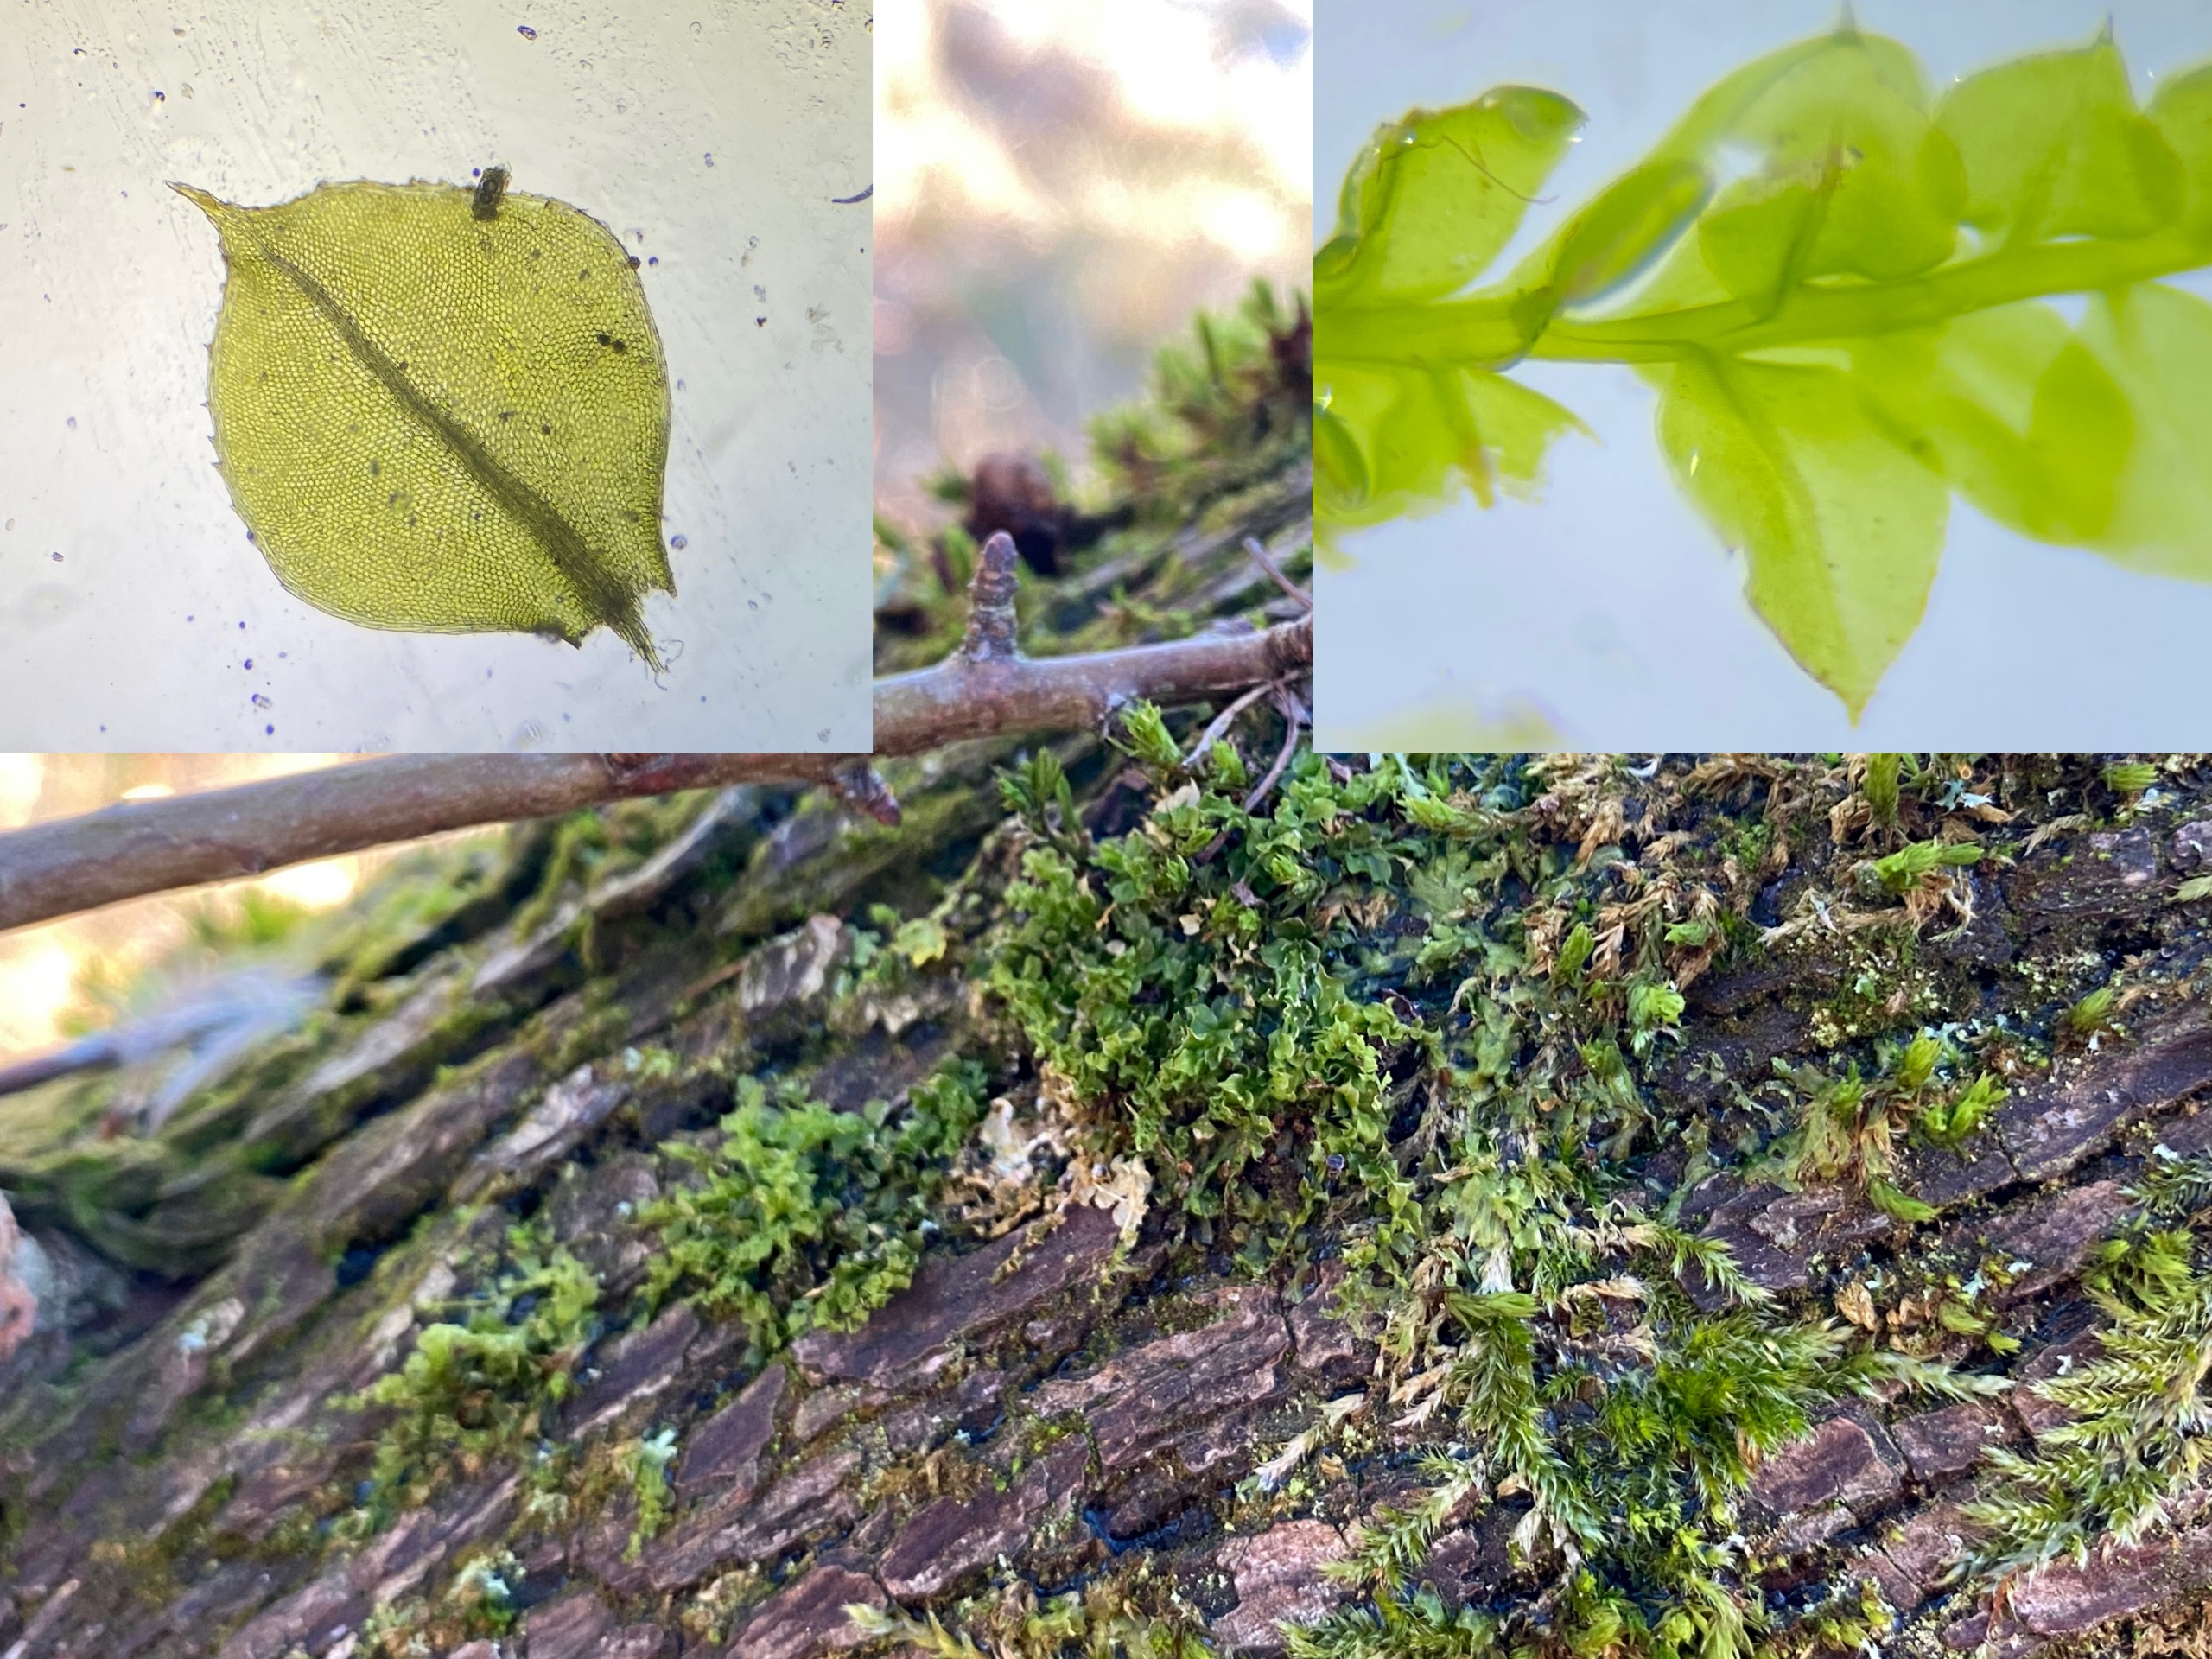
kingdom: Plantae
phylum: Bryophyta
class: Bryopsida
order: Bryales
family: Mniaceae
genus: Plagiomnium
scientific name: Plagiomnium cuspidatum
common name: Gærde-krybstjerne
